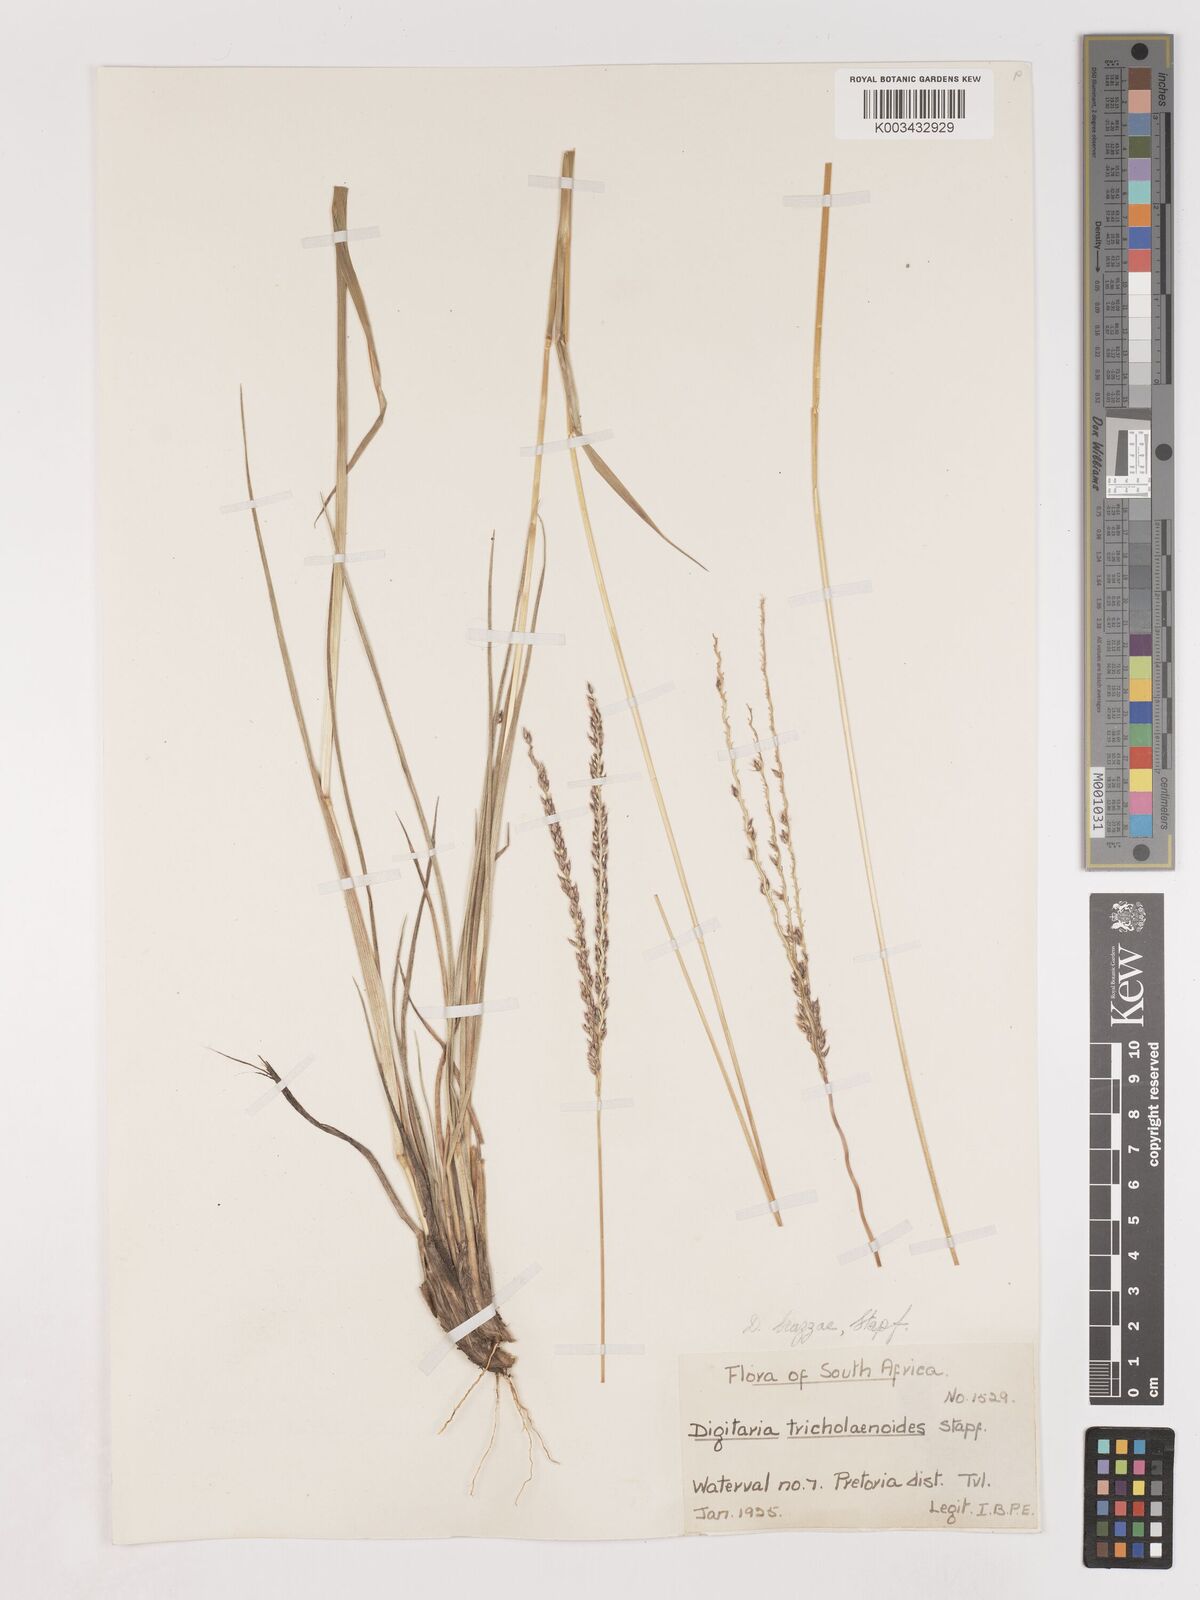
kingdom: Plantae
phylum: Tracheophyta
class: Liliopsida
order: Poales
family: Poaceae
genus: Digitaria
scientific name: Digitaria brazzae
